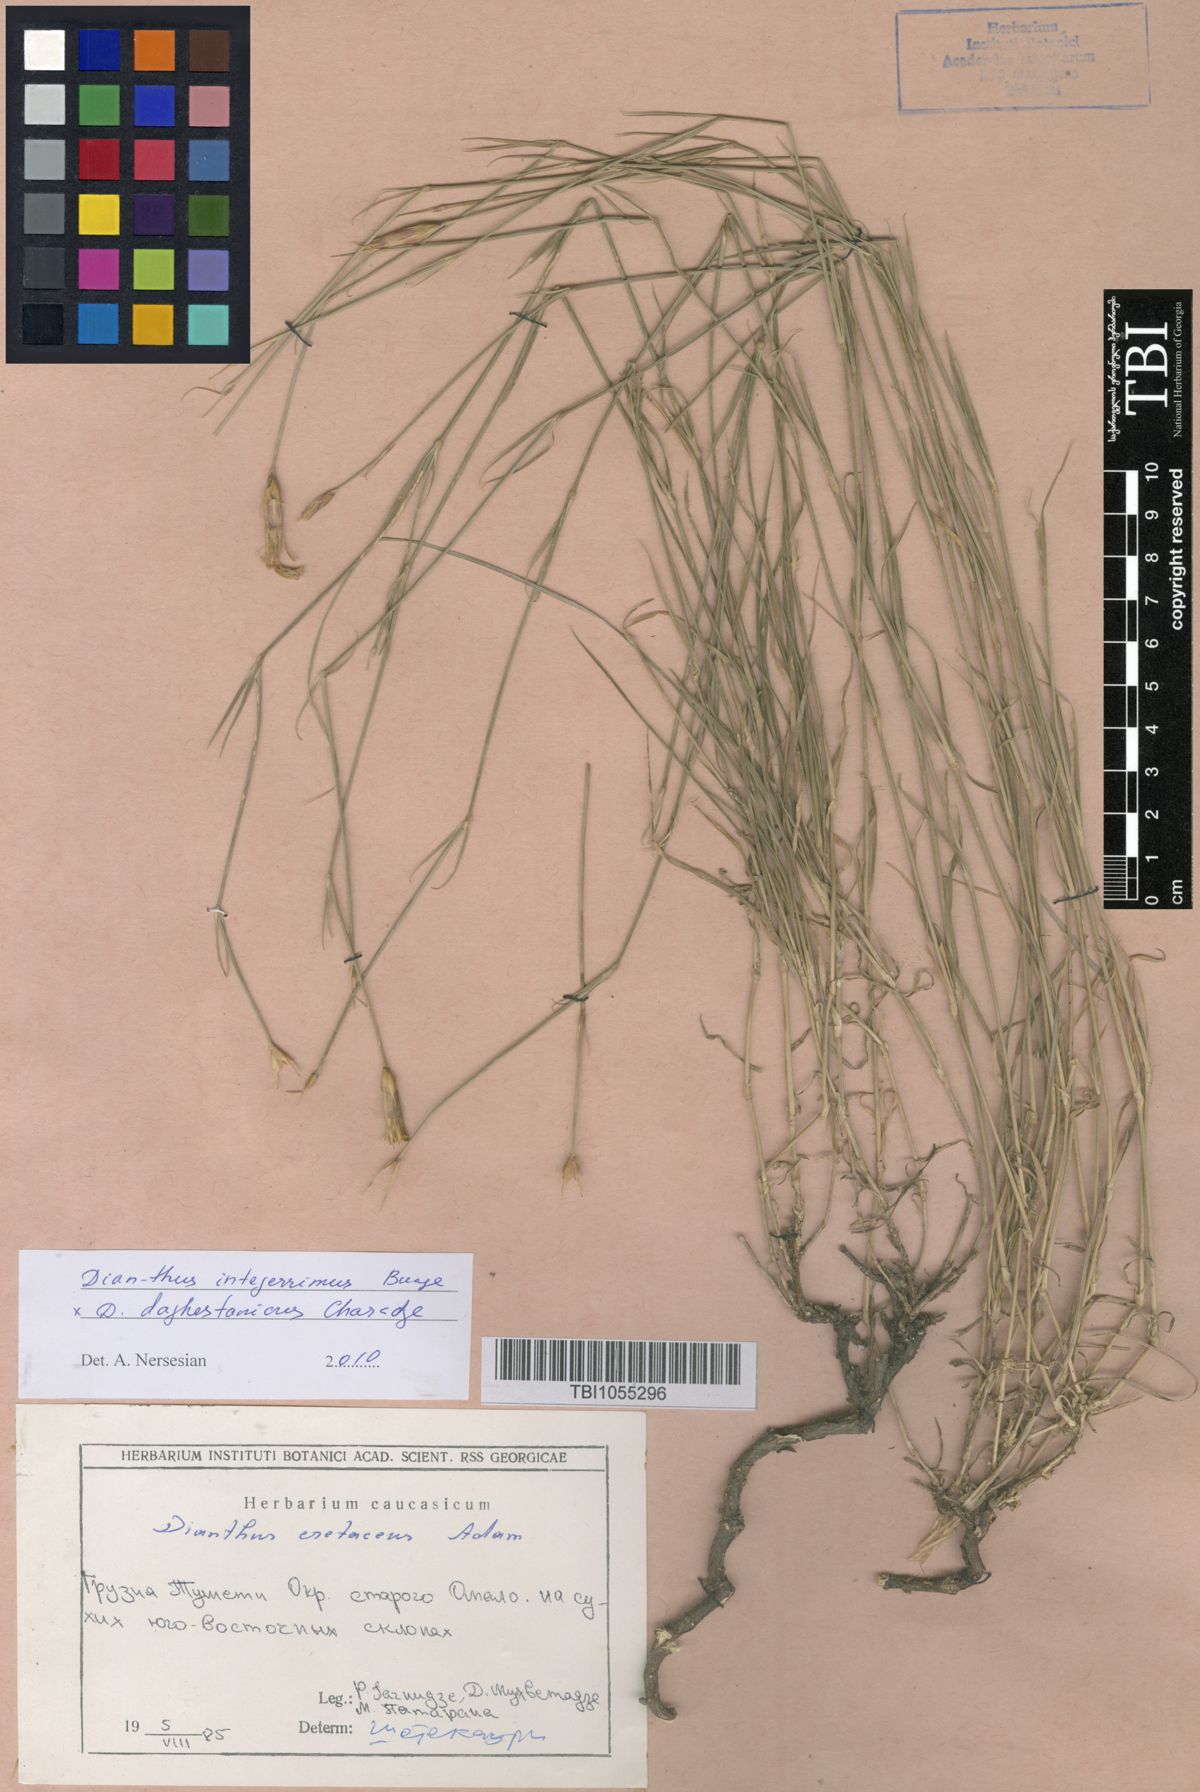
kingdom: Plantae
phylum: Tracheophyta
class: Magnoliopsida
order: Caryophyllales
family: Caryophyllaceae
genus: Dianthus
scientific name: Dianthus cretaceus
